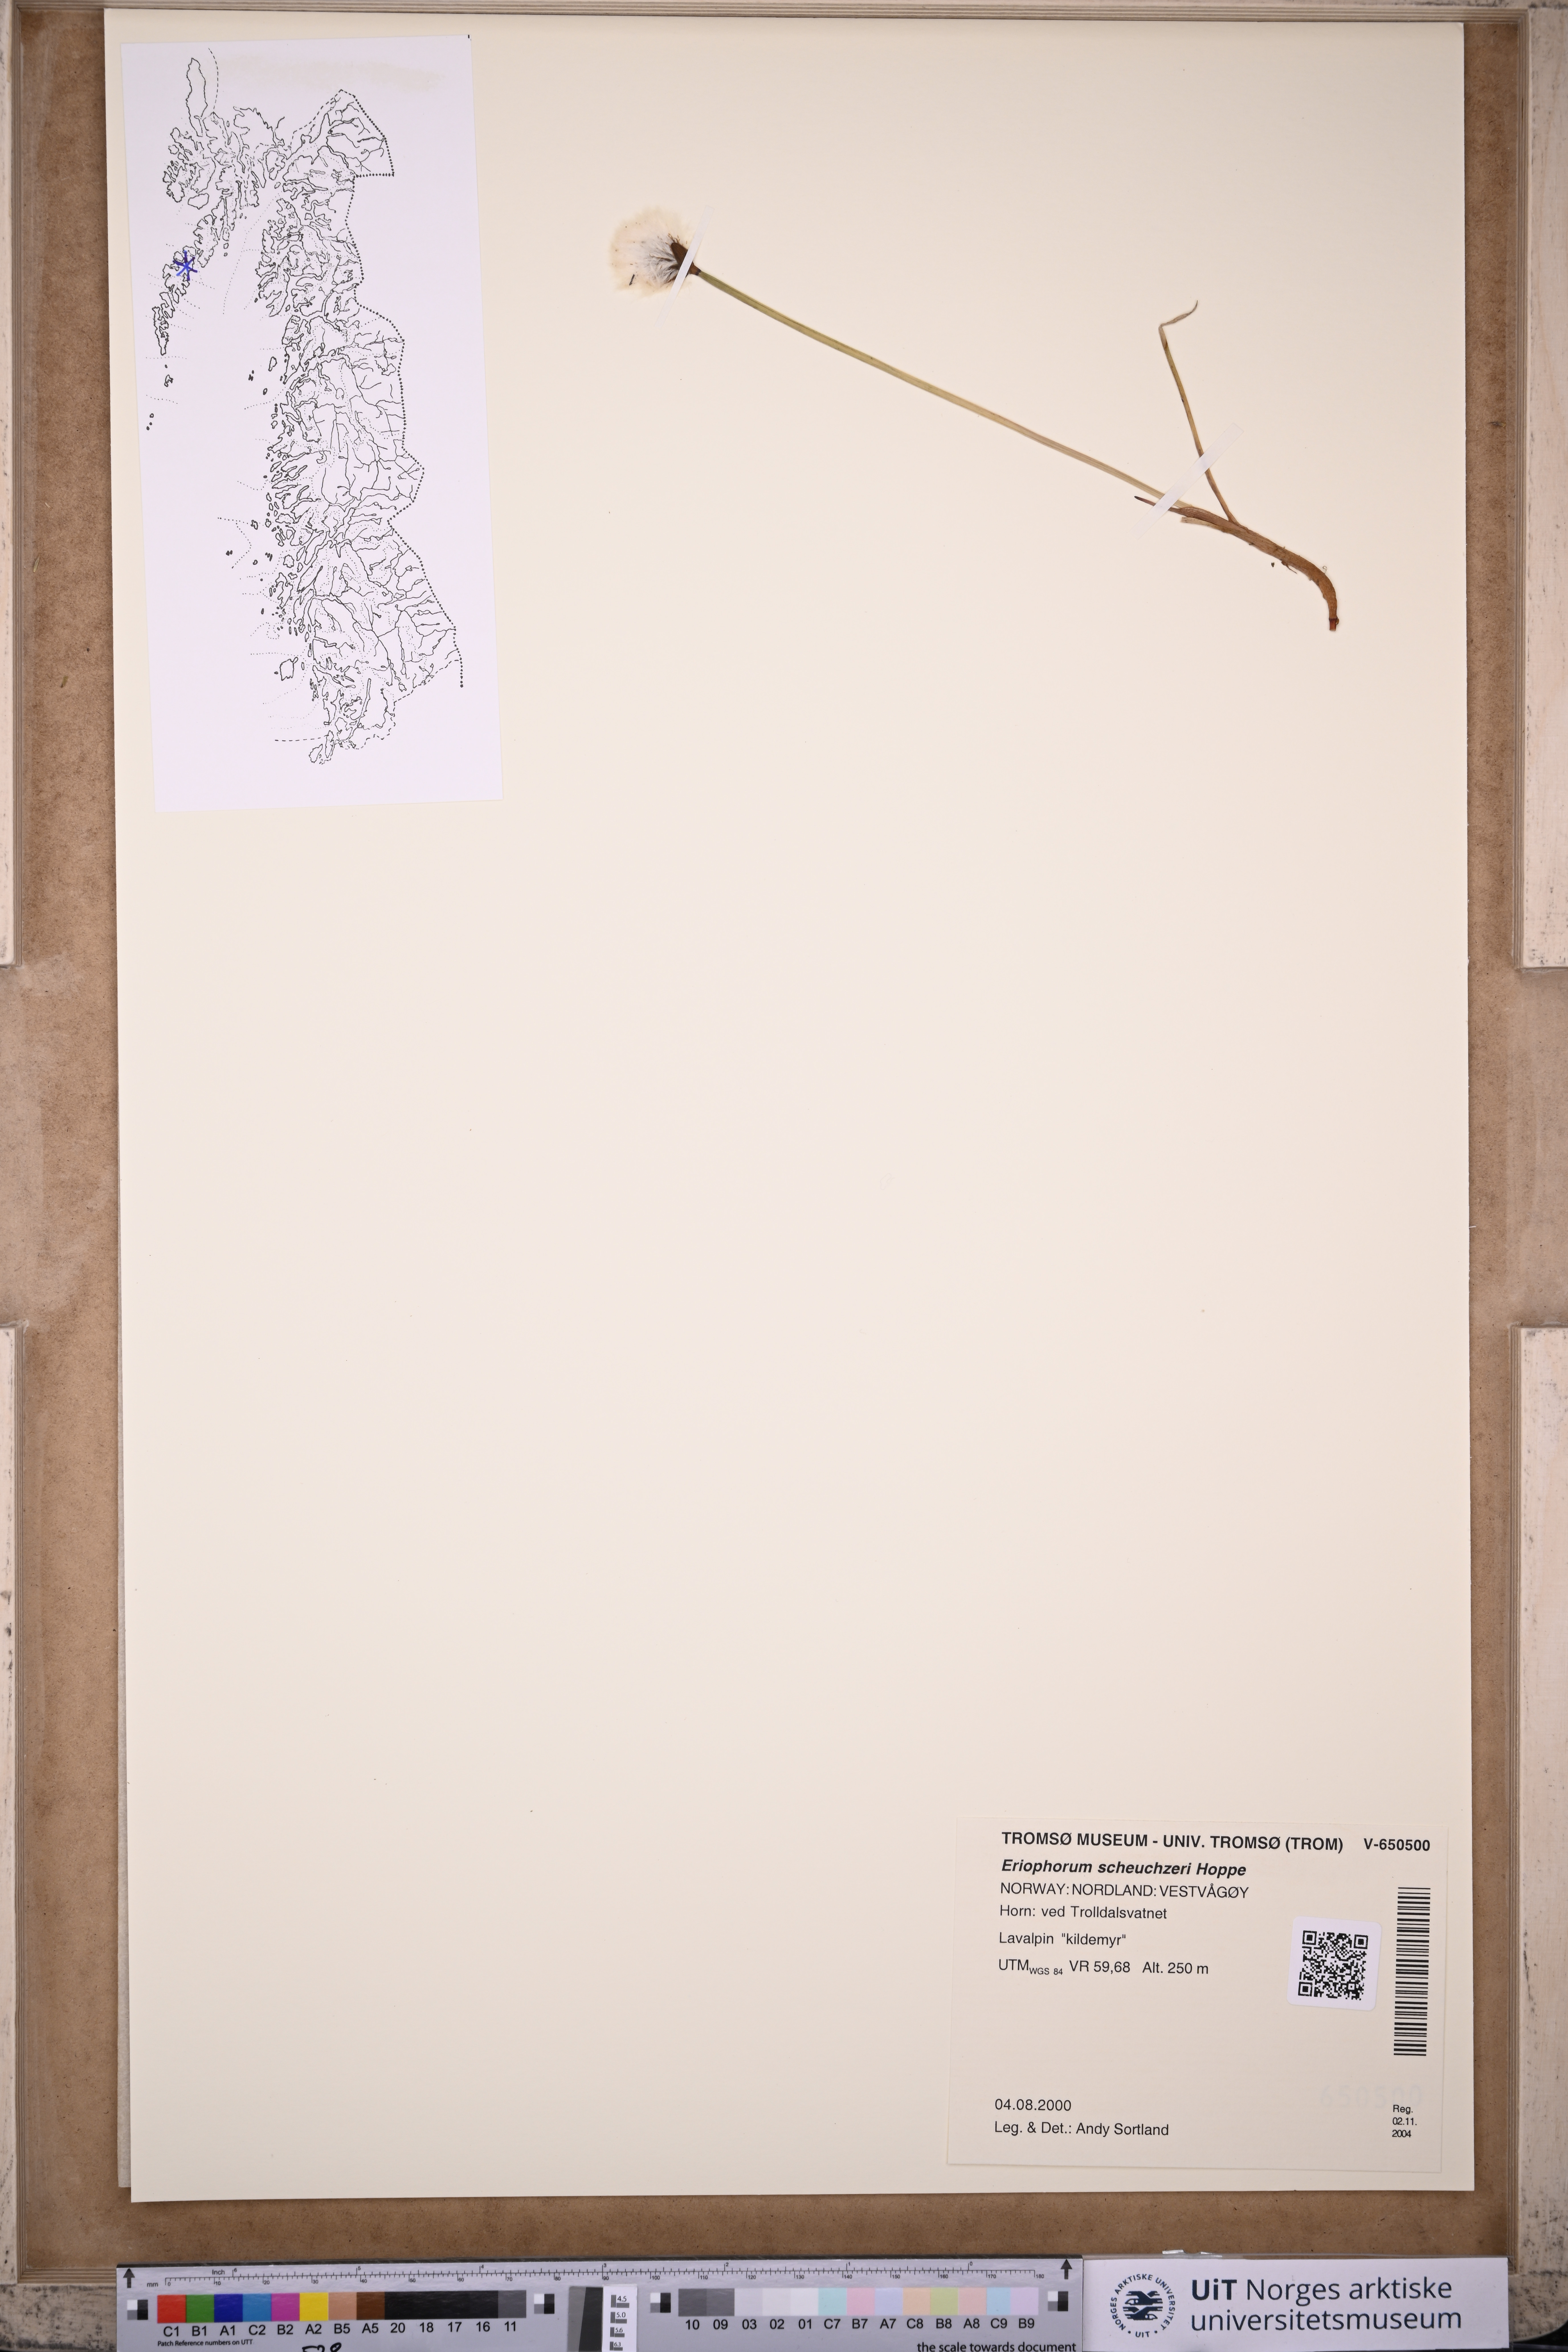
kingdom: Plantae
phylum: Tracheophyta
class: Liliopsida
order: Poales
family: Cyperaceae
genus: Eriophorum
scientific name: Eriophorum scheuchzeri
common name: Scheuchzer's cottongrass
